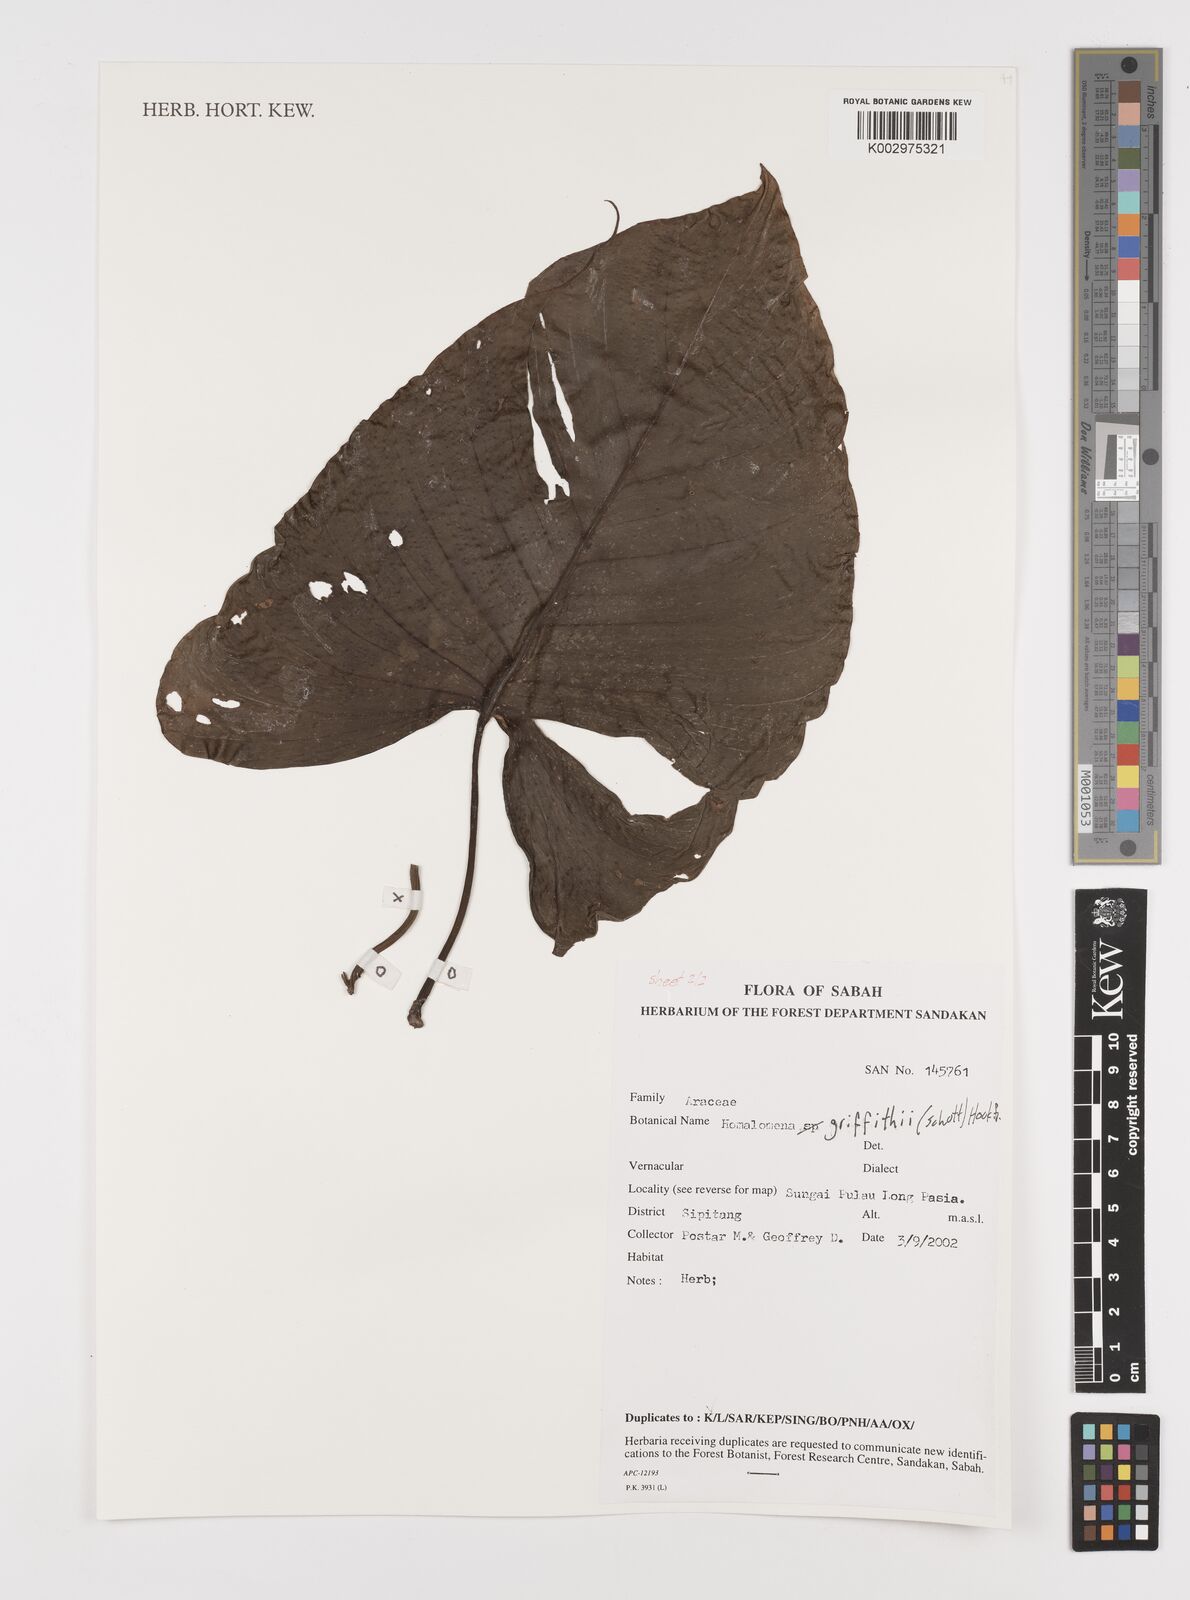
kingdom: Plantae
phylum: Tracheophyta
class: Liliopsida
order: Alismatales
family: Araceae
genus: Homalomena
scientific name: Homalomena griffithii
